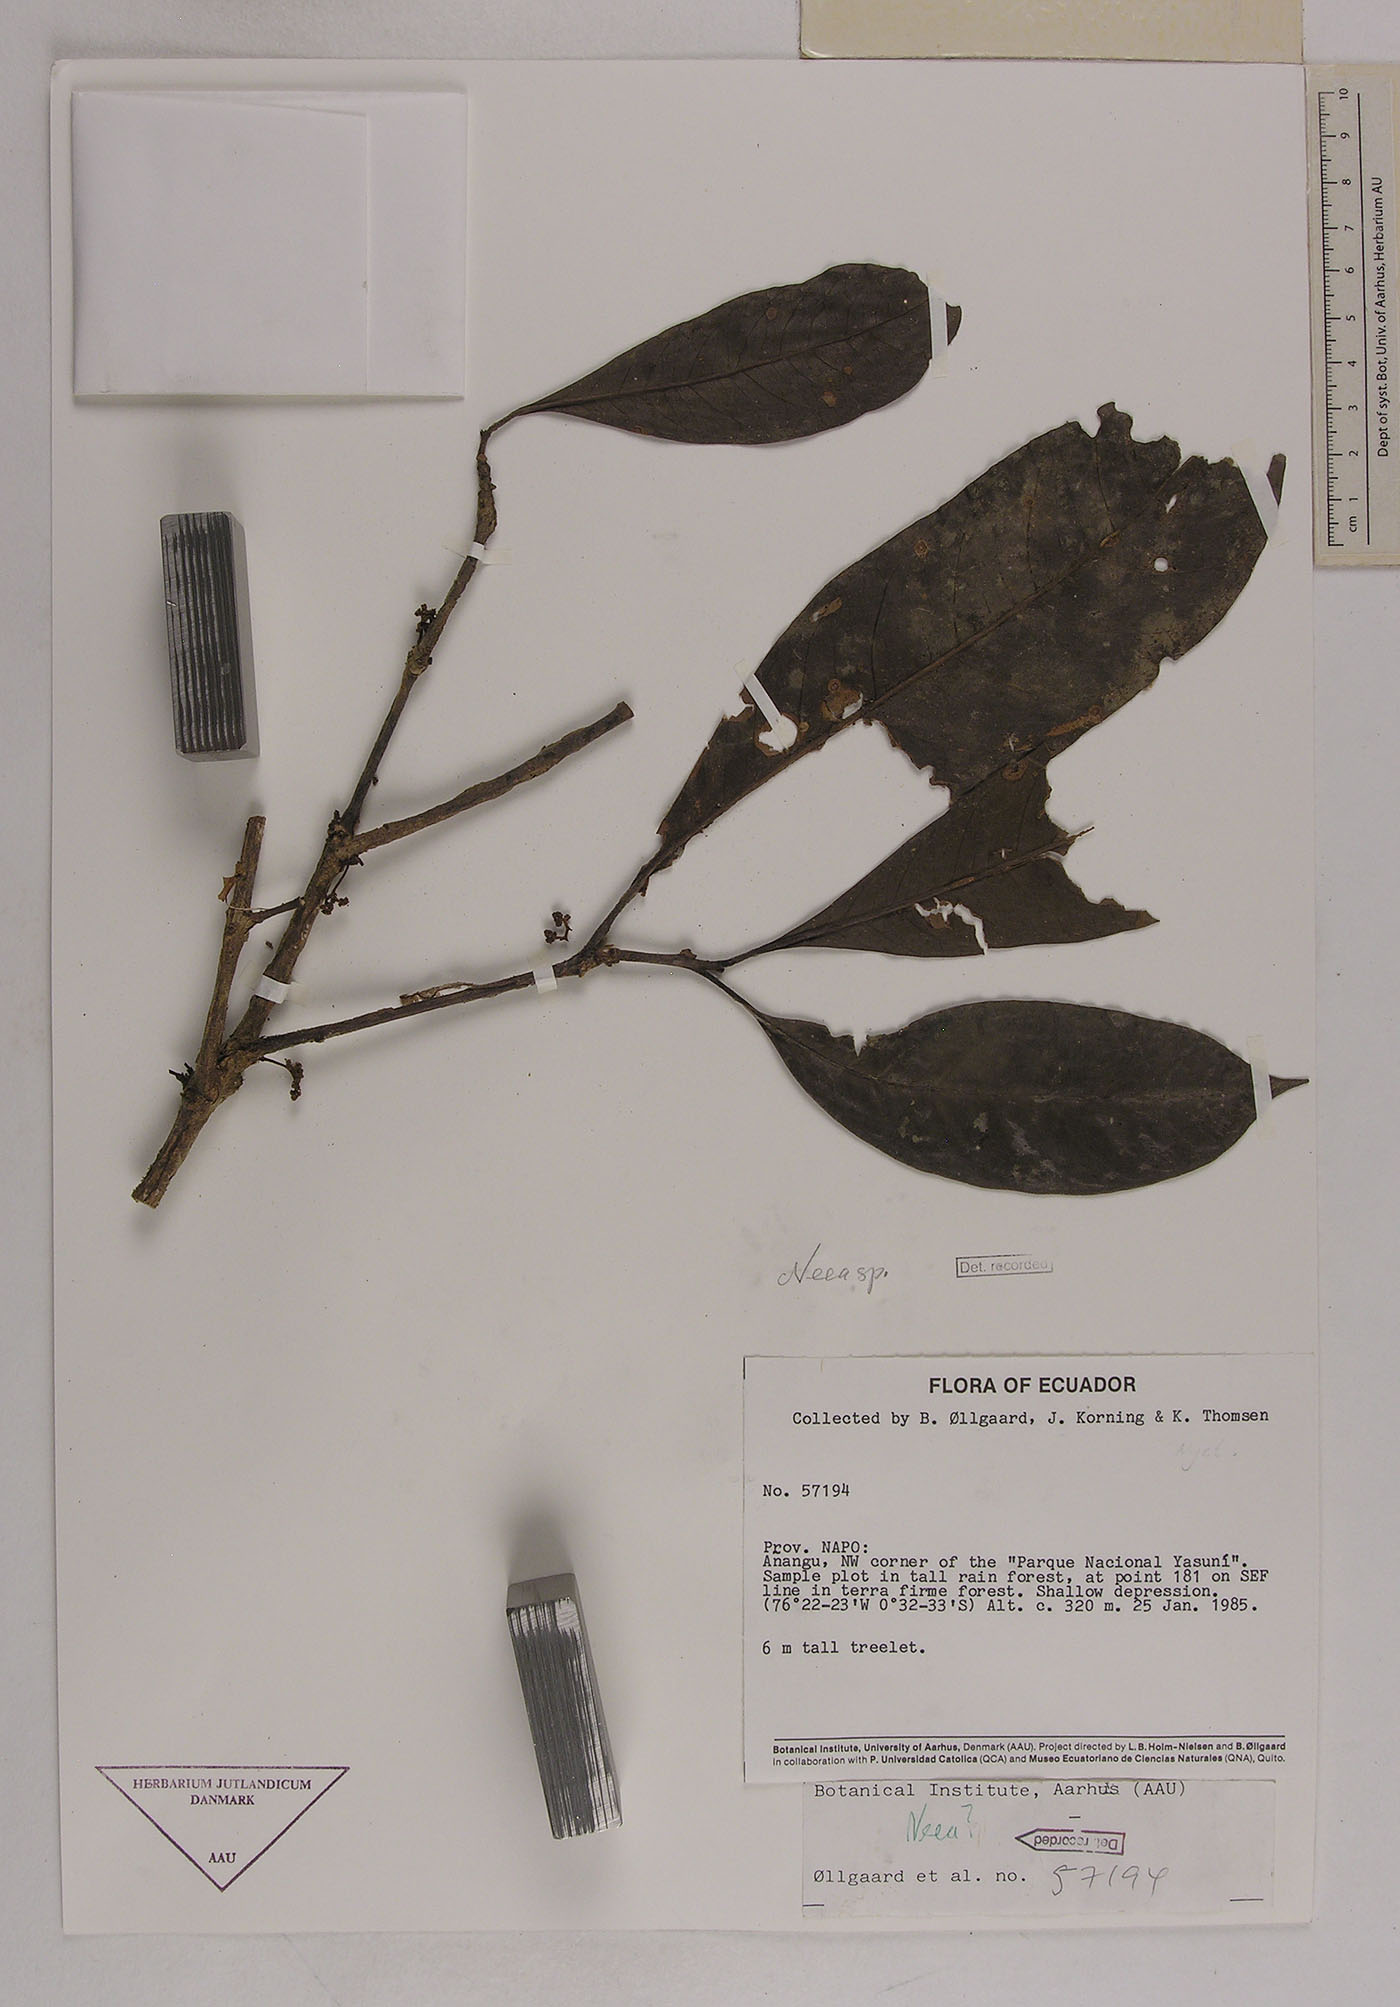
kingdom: Plantae
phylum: Tracheophyta
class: Magnoliopsida
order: Caryophyllales
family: Nyctaginaceae
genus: Neea
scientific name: Neea
